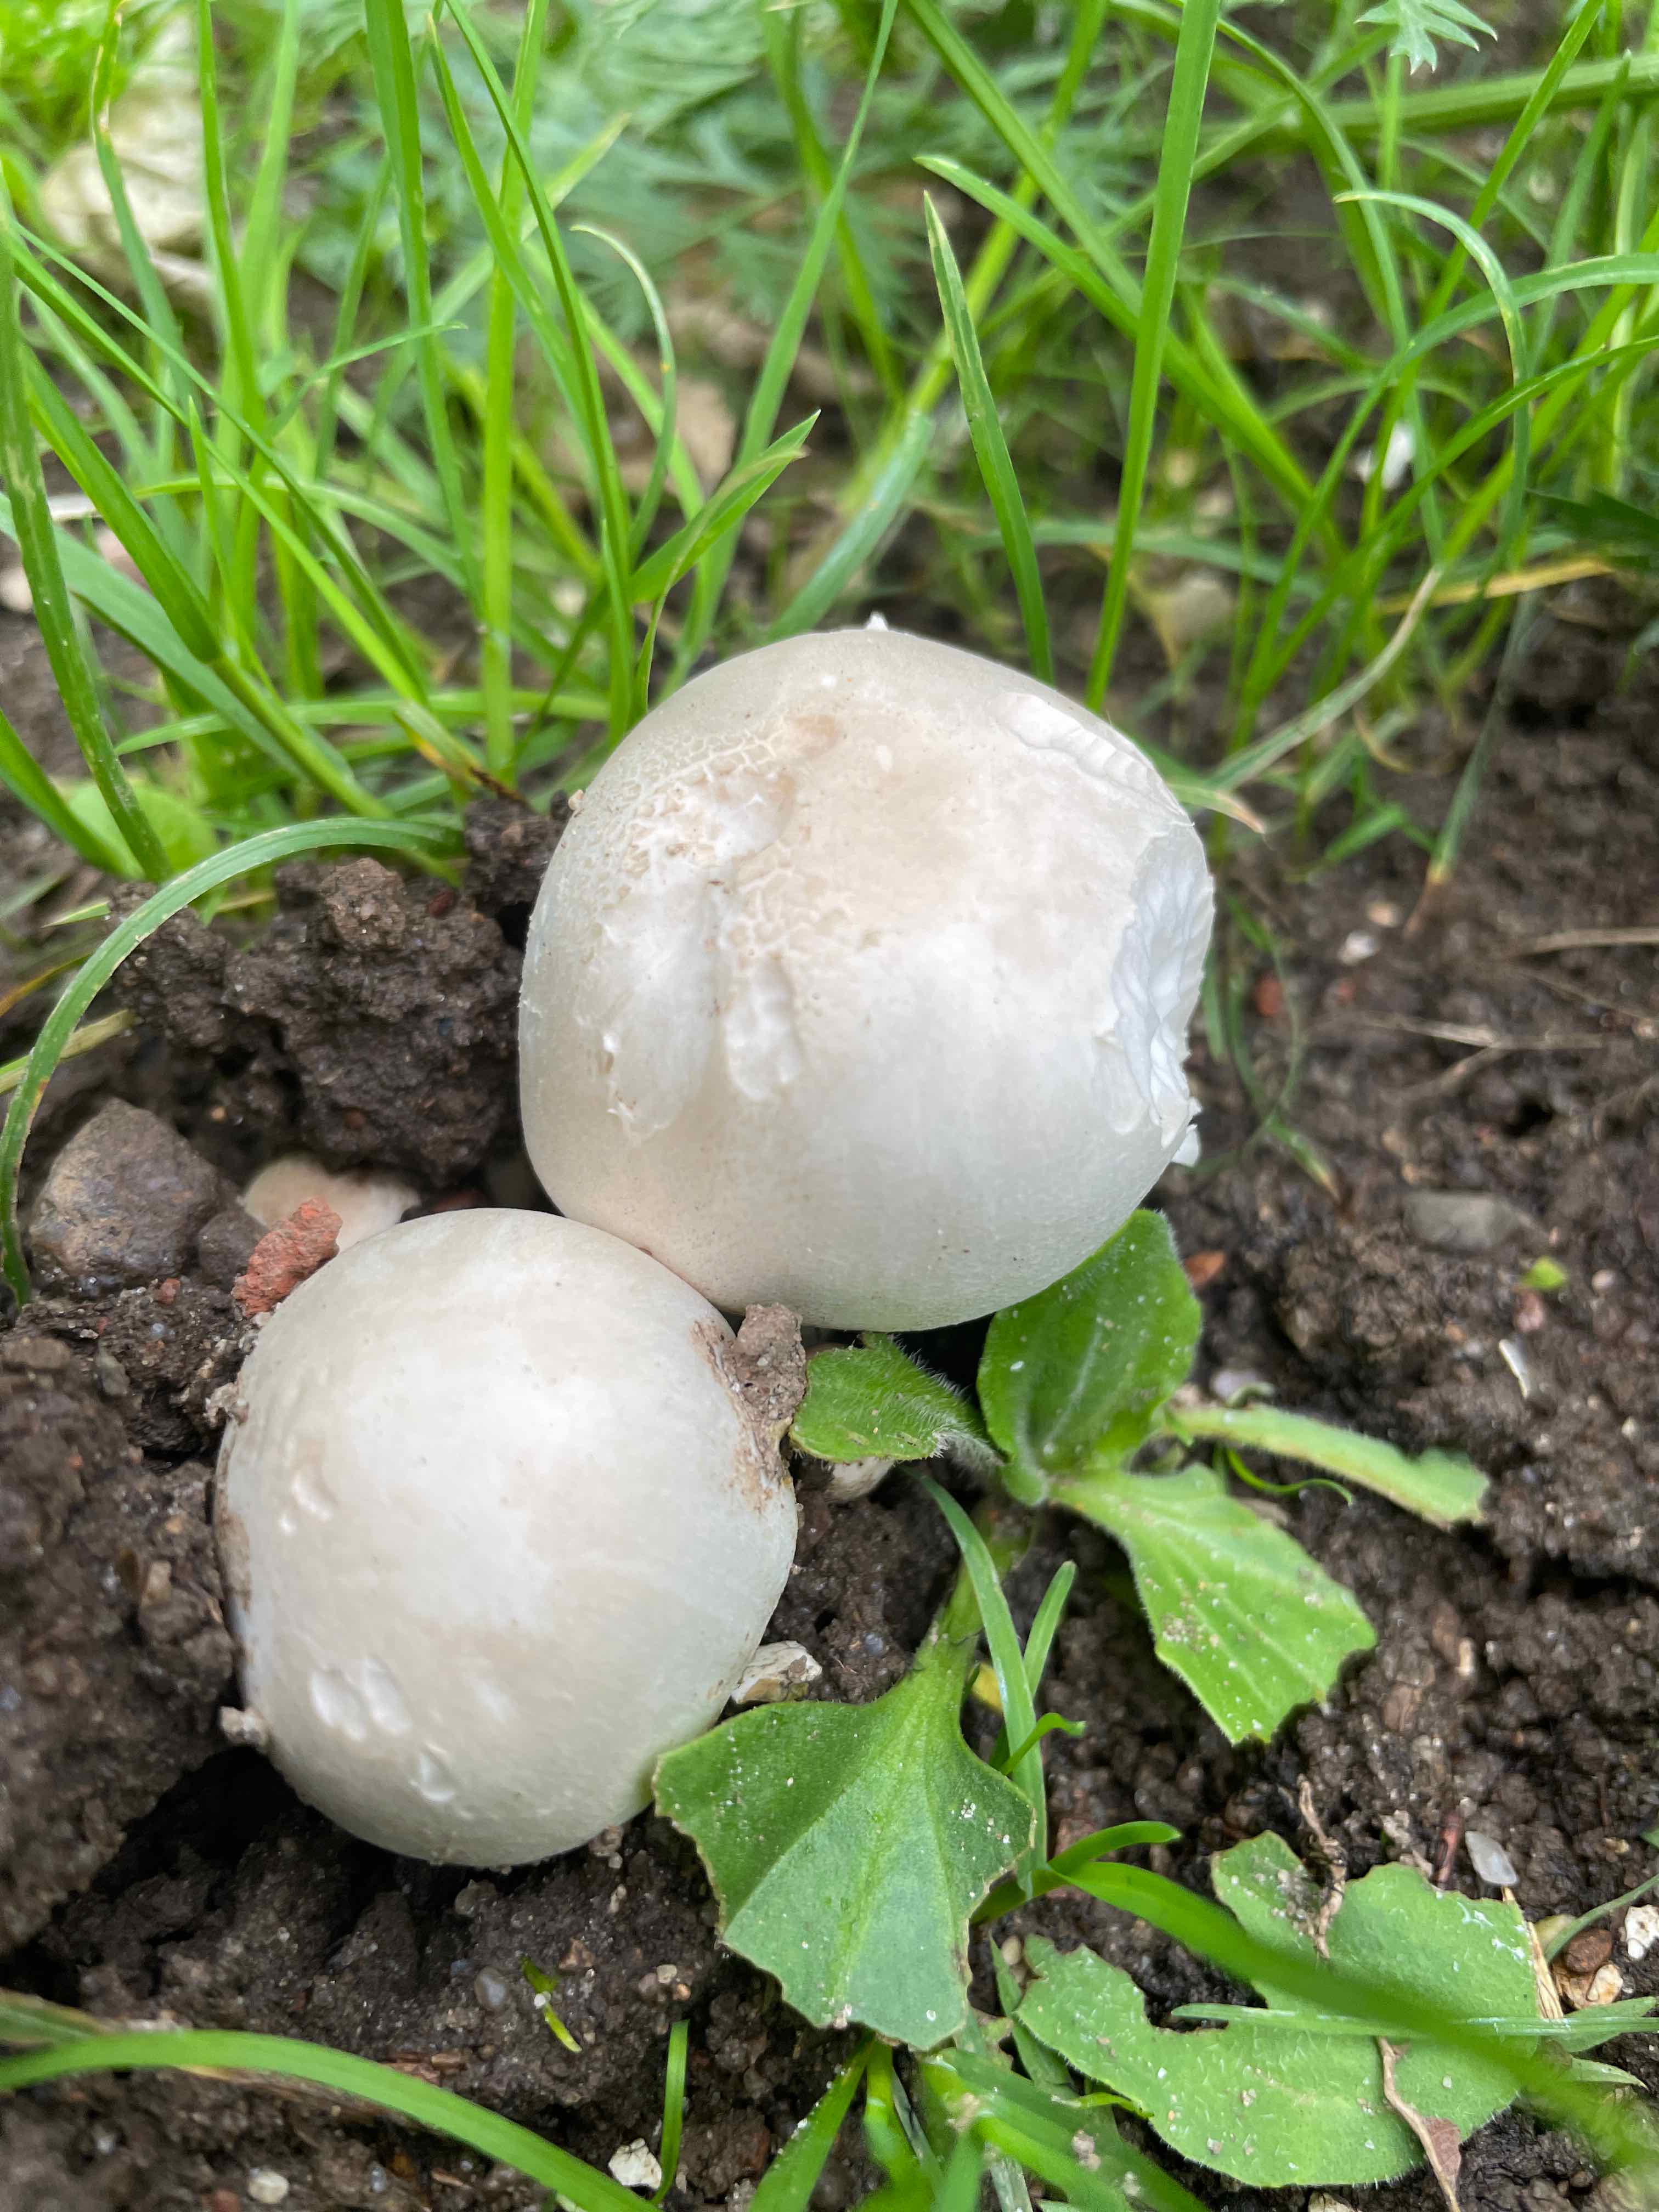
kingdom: Fungi
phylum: Basidiomycota
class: Agaricomycetes
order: Agaricales
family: Agaricaceae
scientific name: Agaricaceae
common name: champignonfamilien
